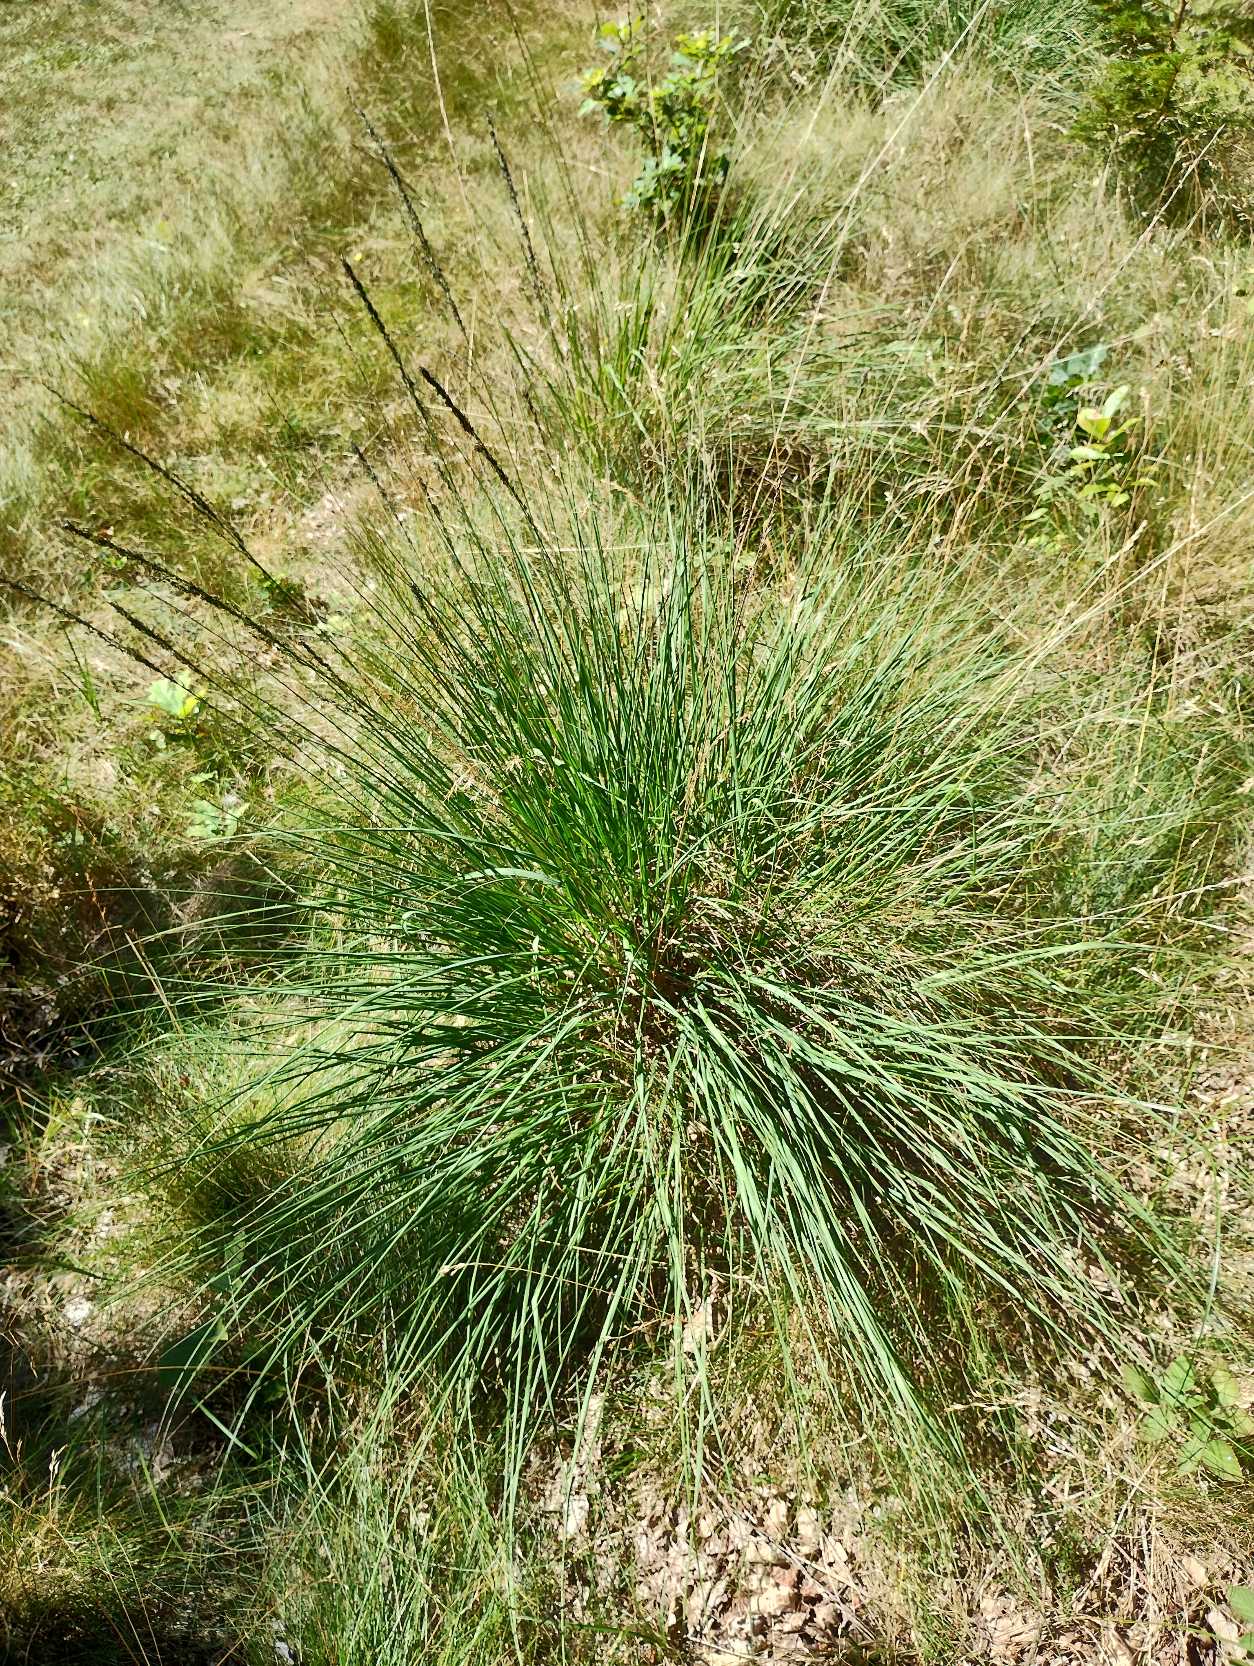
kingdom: Plantae
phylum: Tracheophyta
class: Liliopsida
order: Poales
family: Poaceae
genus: Molinia
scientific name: Molinia caerulea
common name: Blåtop
